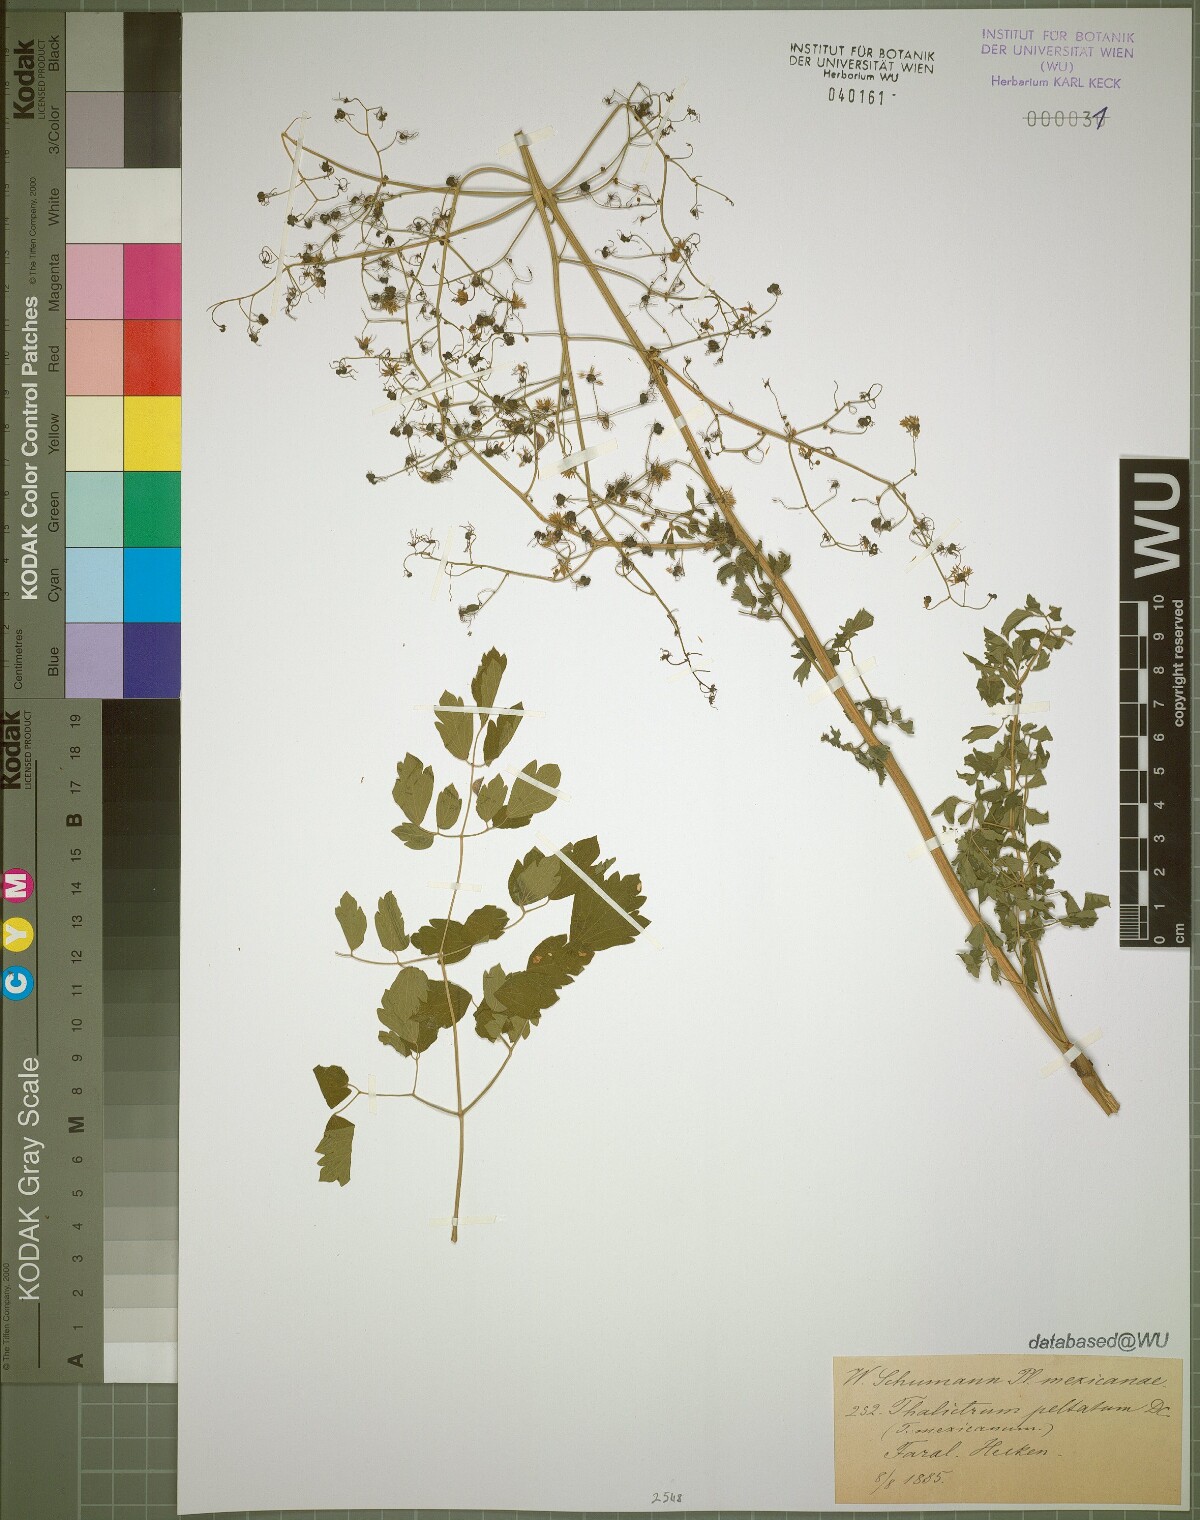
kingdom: Plantae
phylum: Tracheophyta
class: Magnoliopsida
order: Ranunculales
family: Ranunculaceae
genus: Thalictrum
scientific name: Thalictrum peltatum
